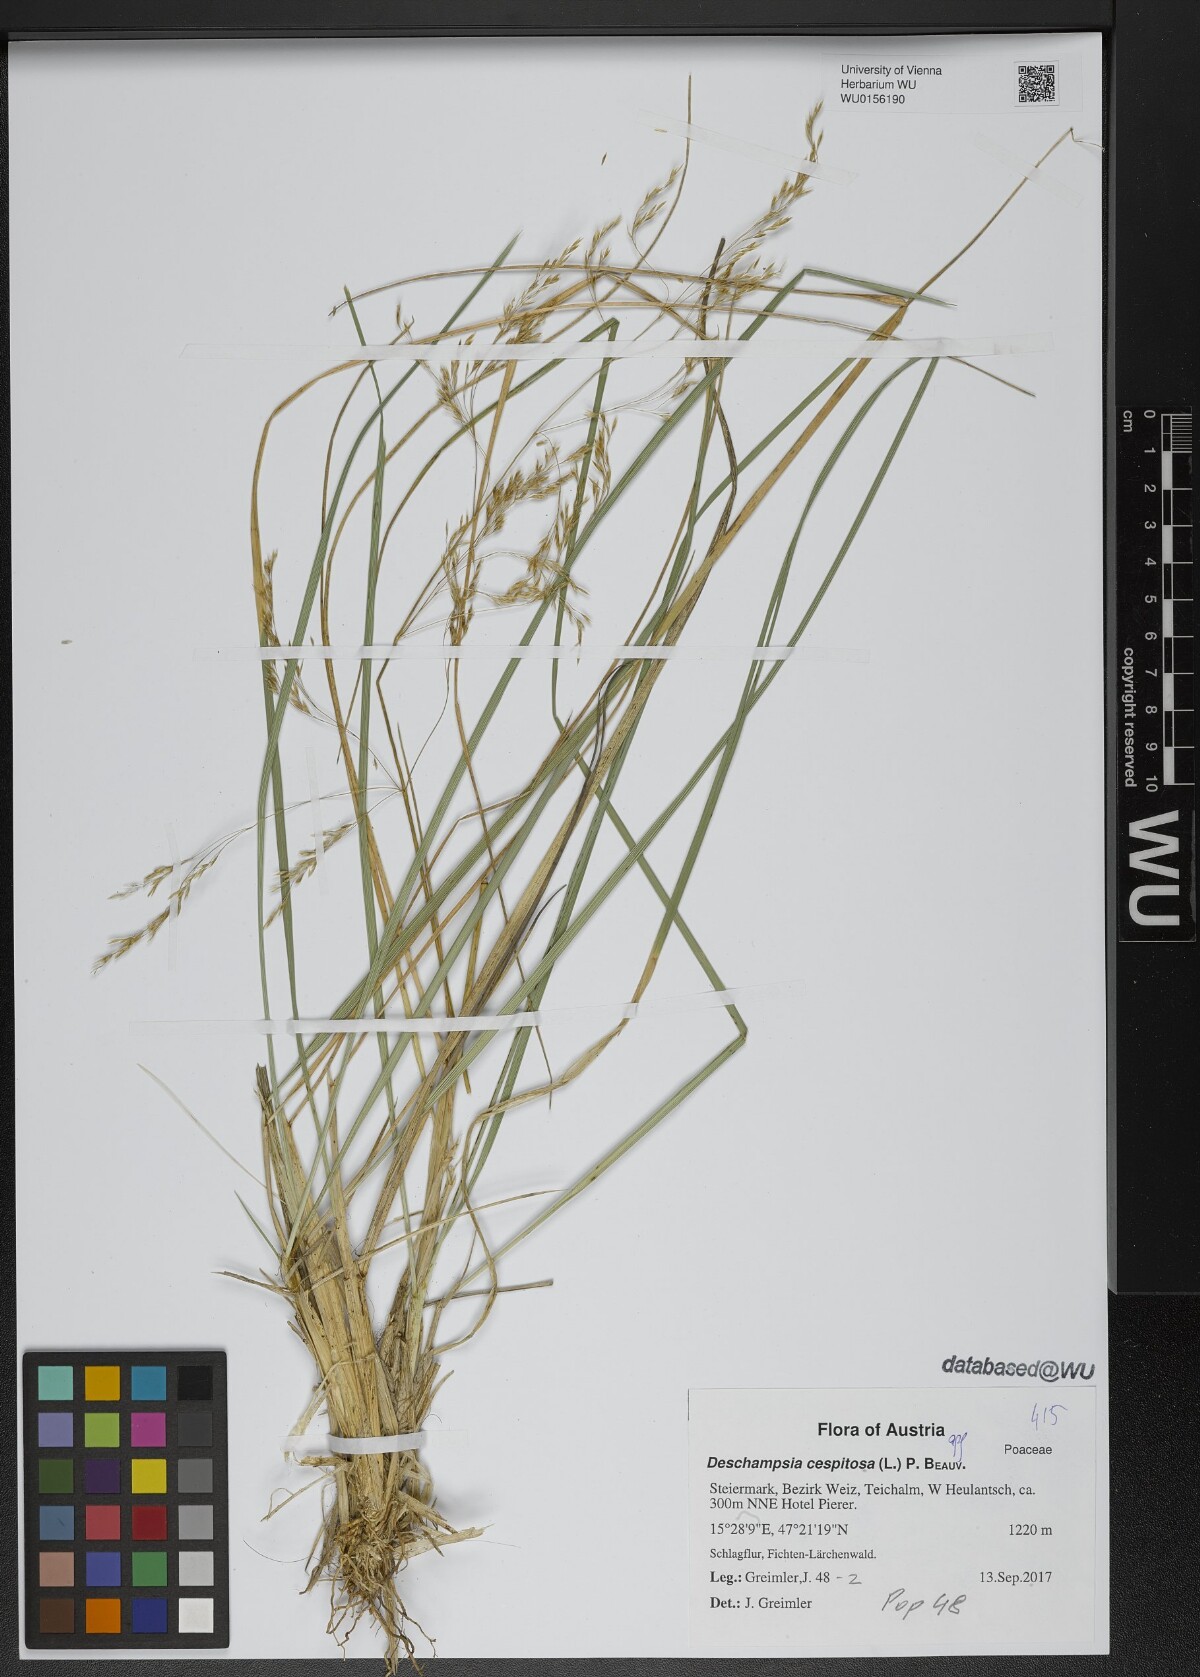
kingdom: Plantae
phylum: Tracheophyta
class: Liliopsida
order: Poales
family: Poaceae
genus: Deschampsia
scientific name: Deschampsia cespitosa
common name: Tufted hair-grass
